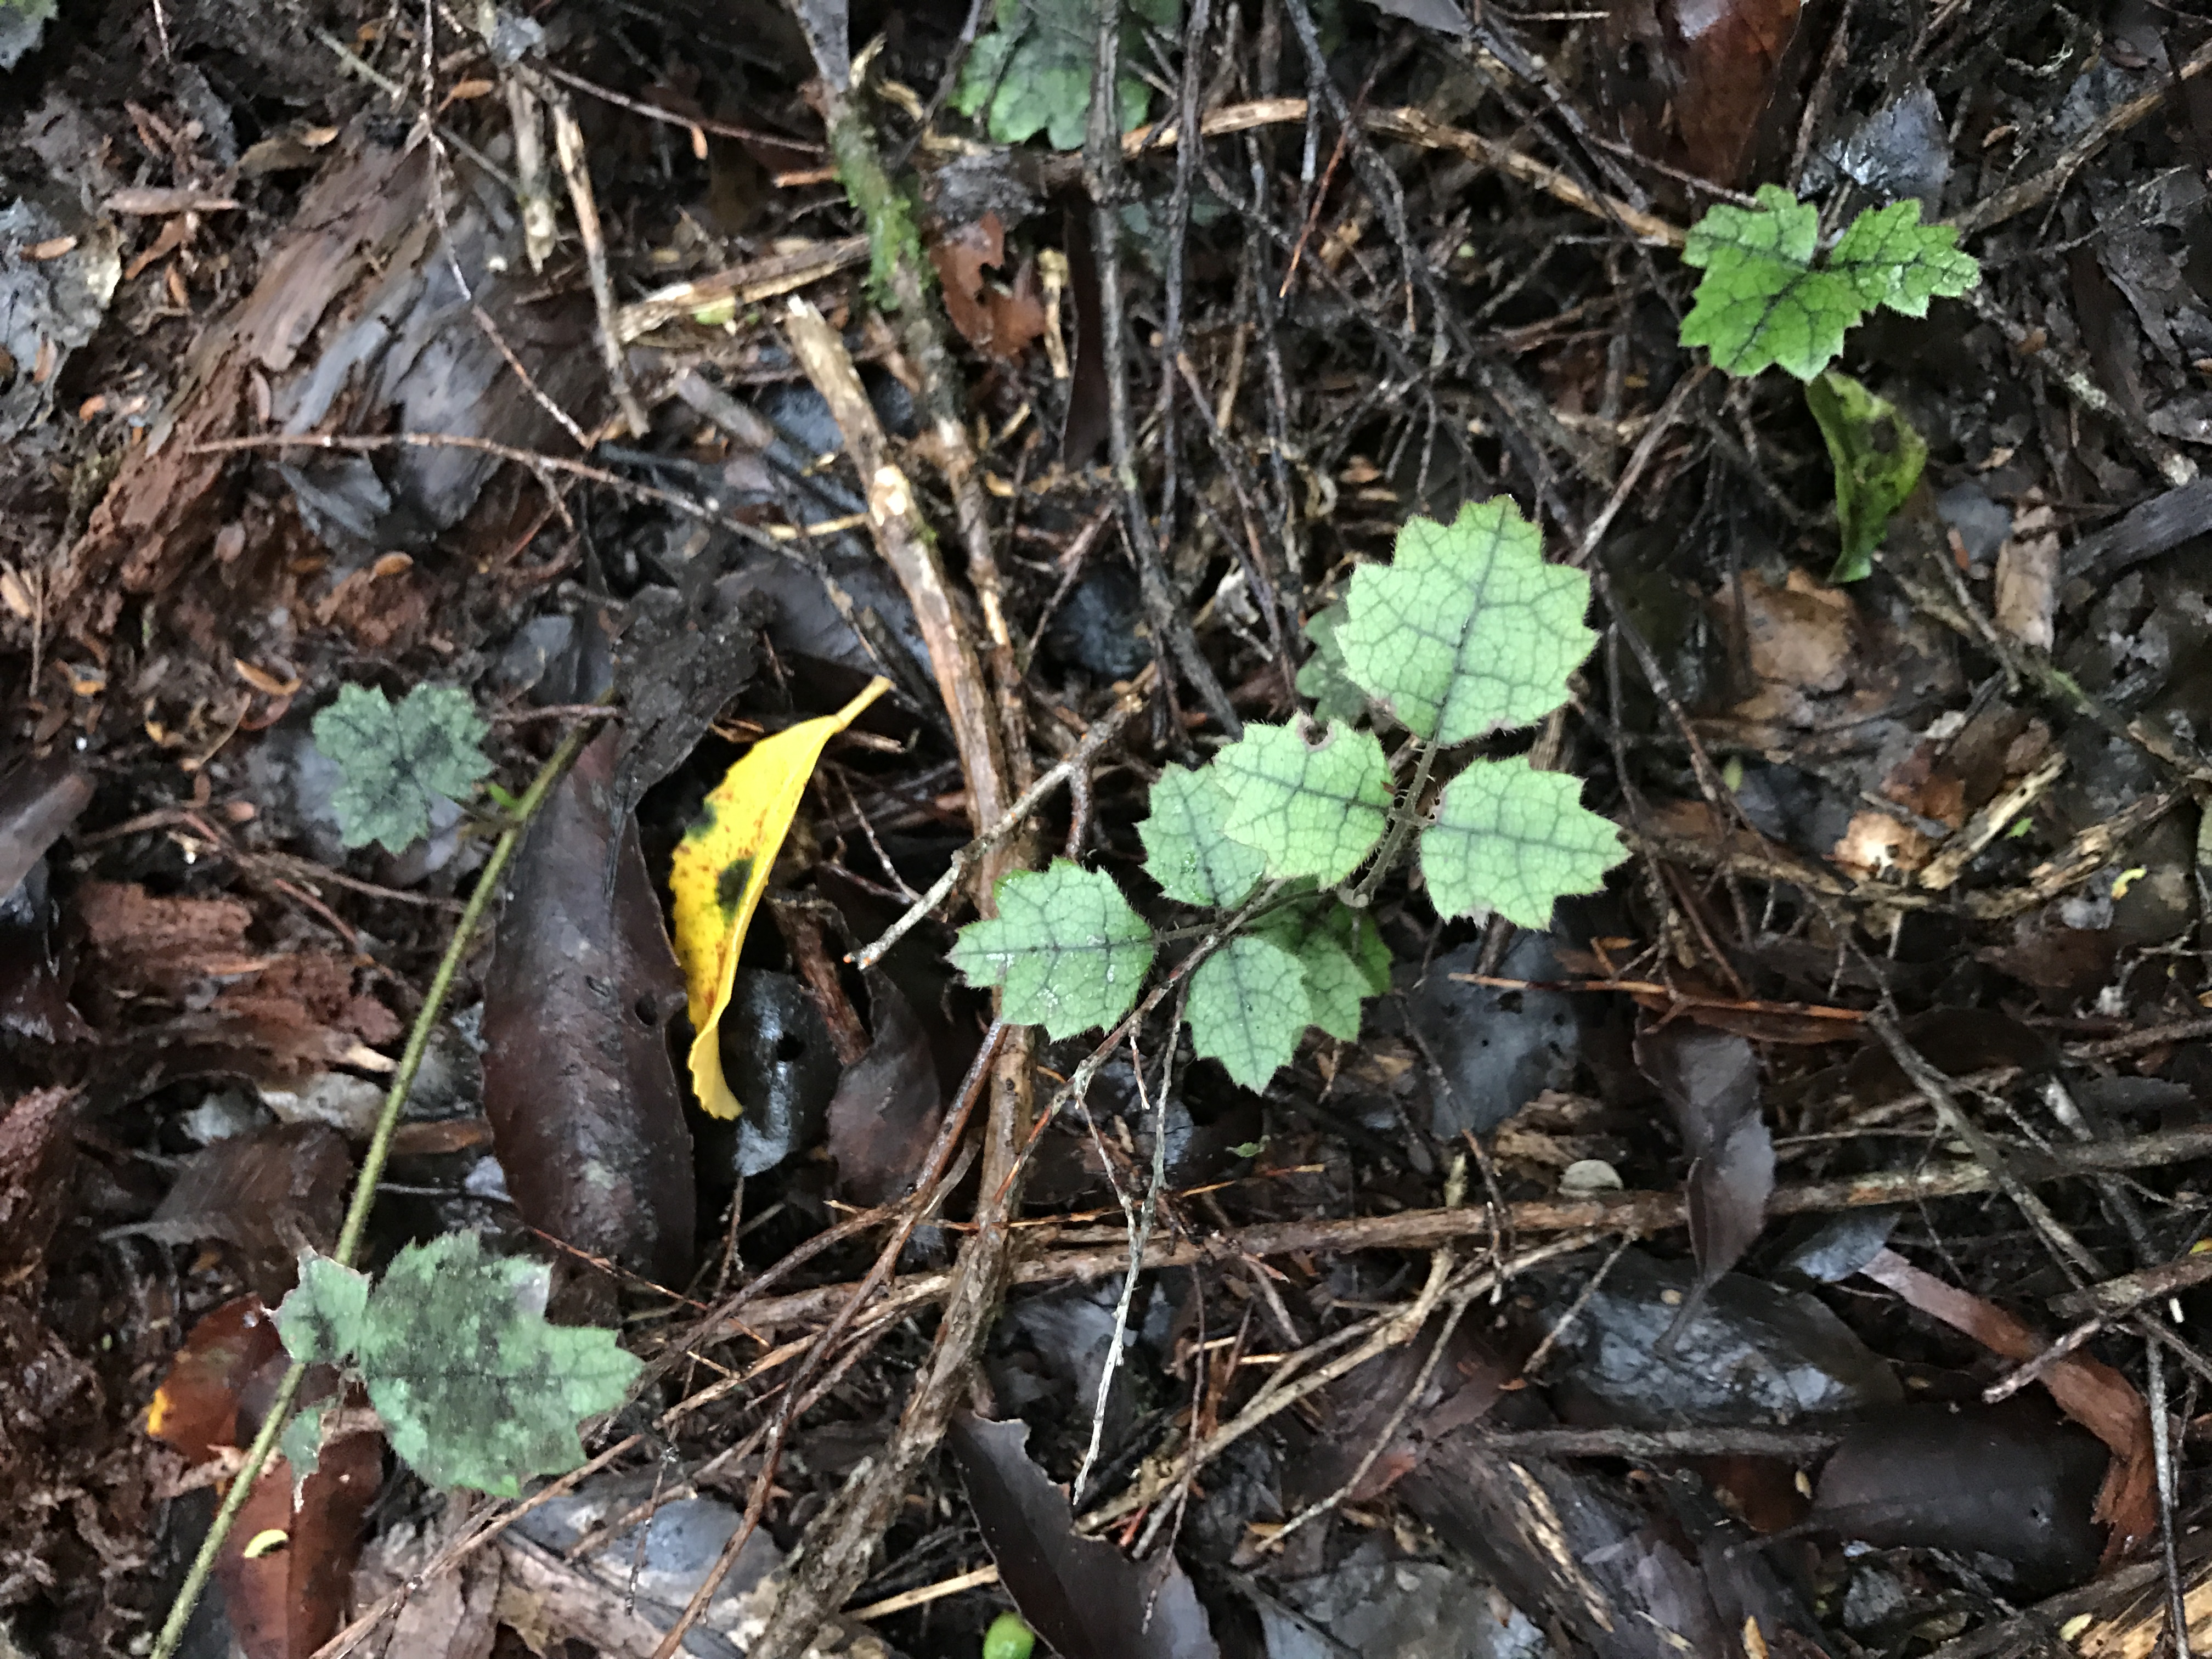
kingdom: Plantae
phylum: Tracheophyta
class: Magnoliopsida
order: Rosales
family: Rosaceae
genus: Rubus
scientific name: Rubus australis
